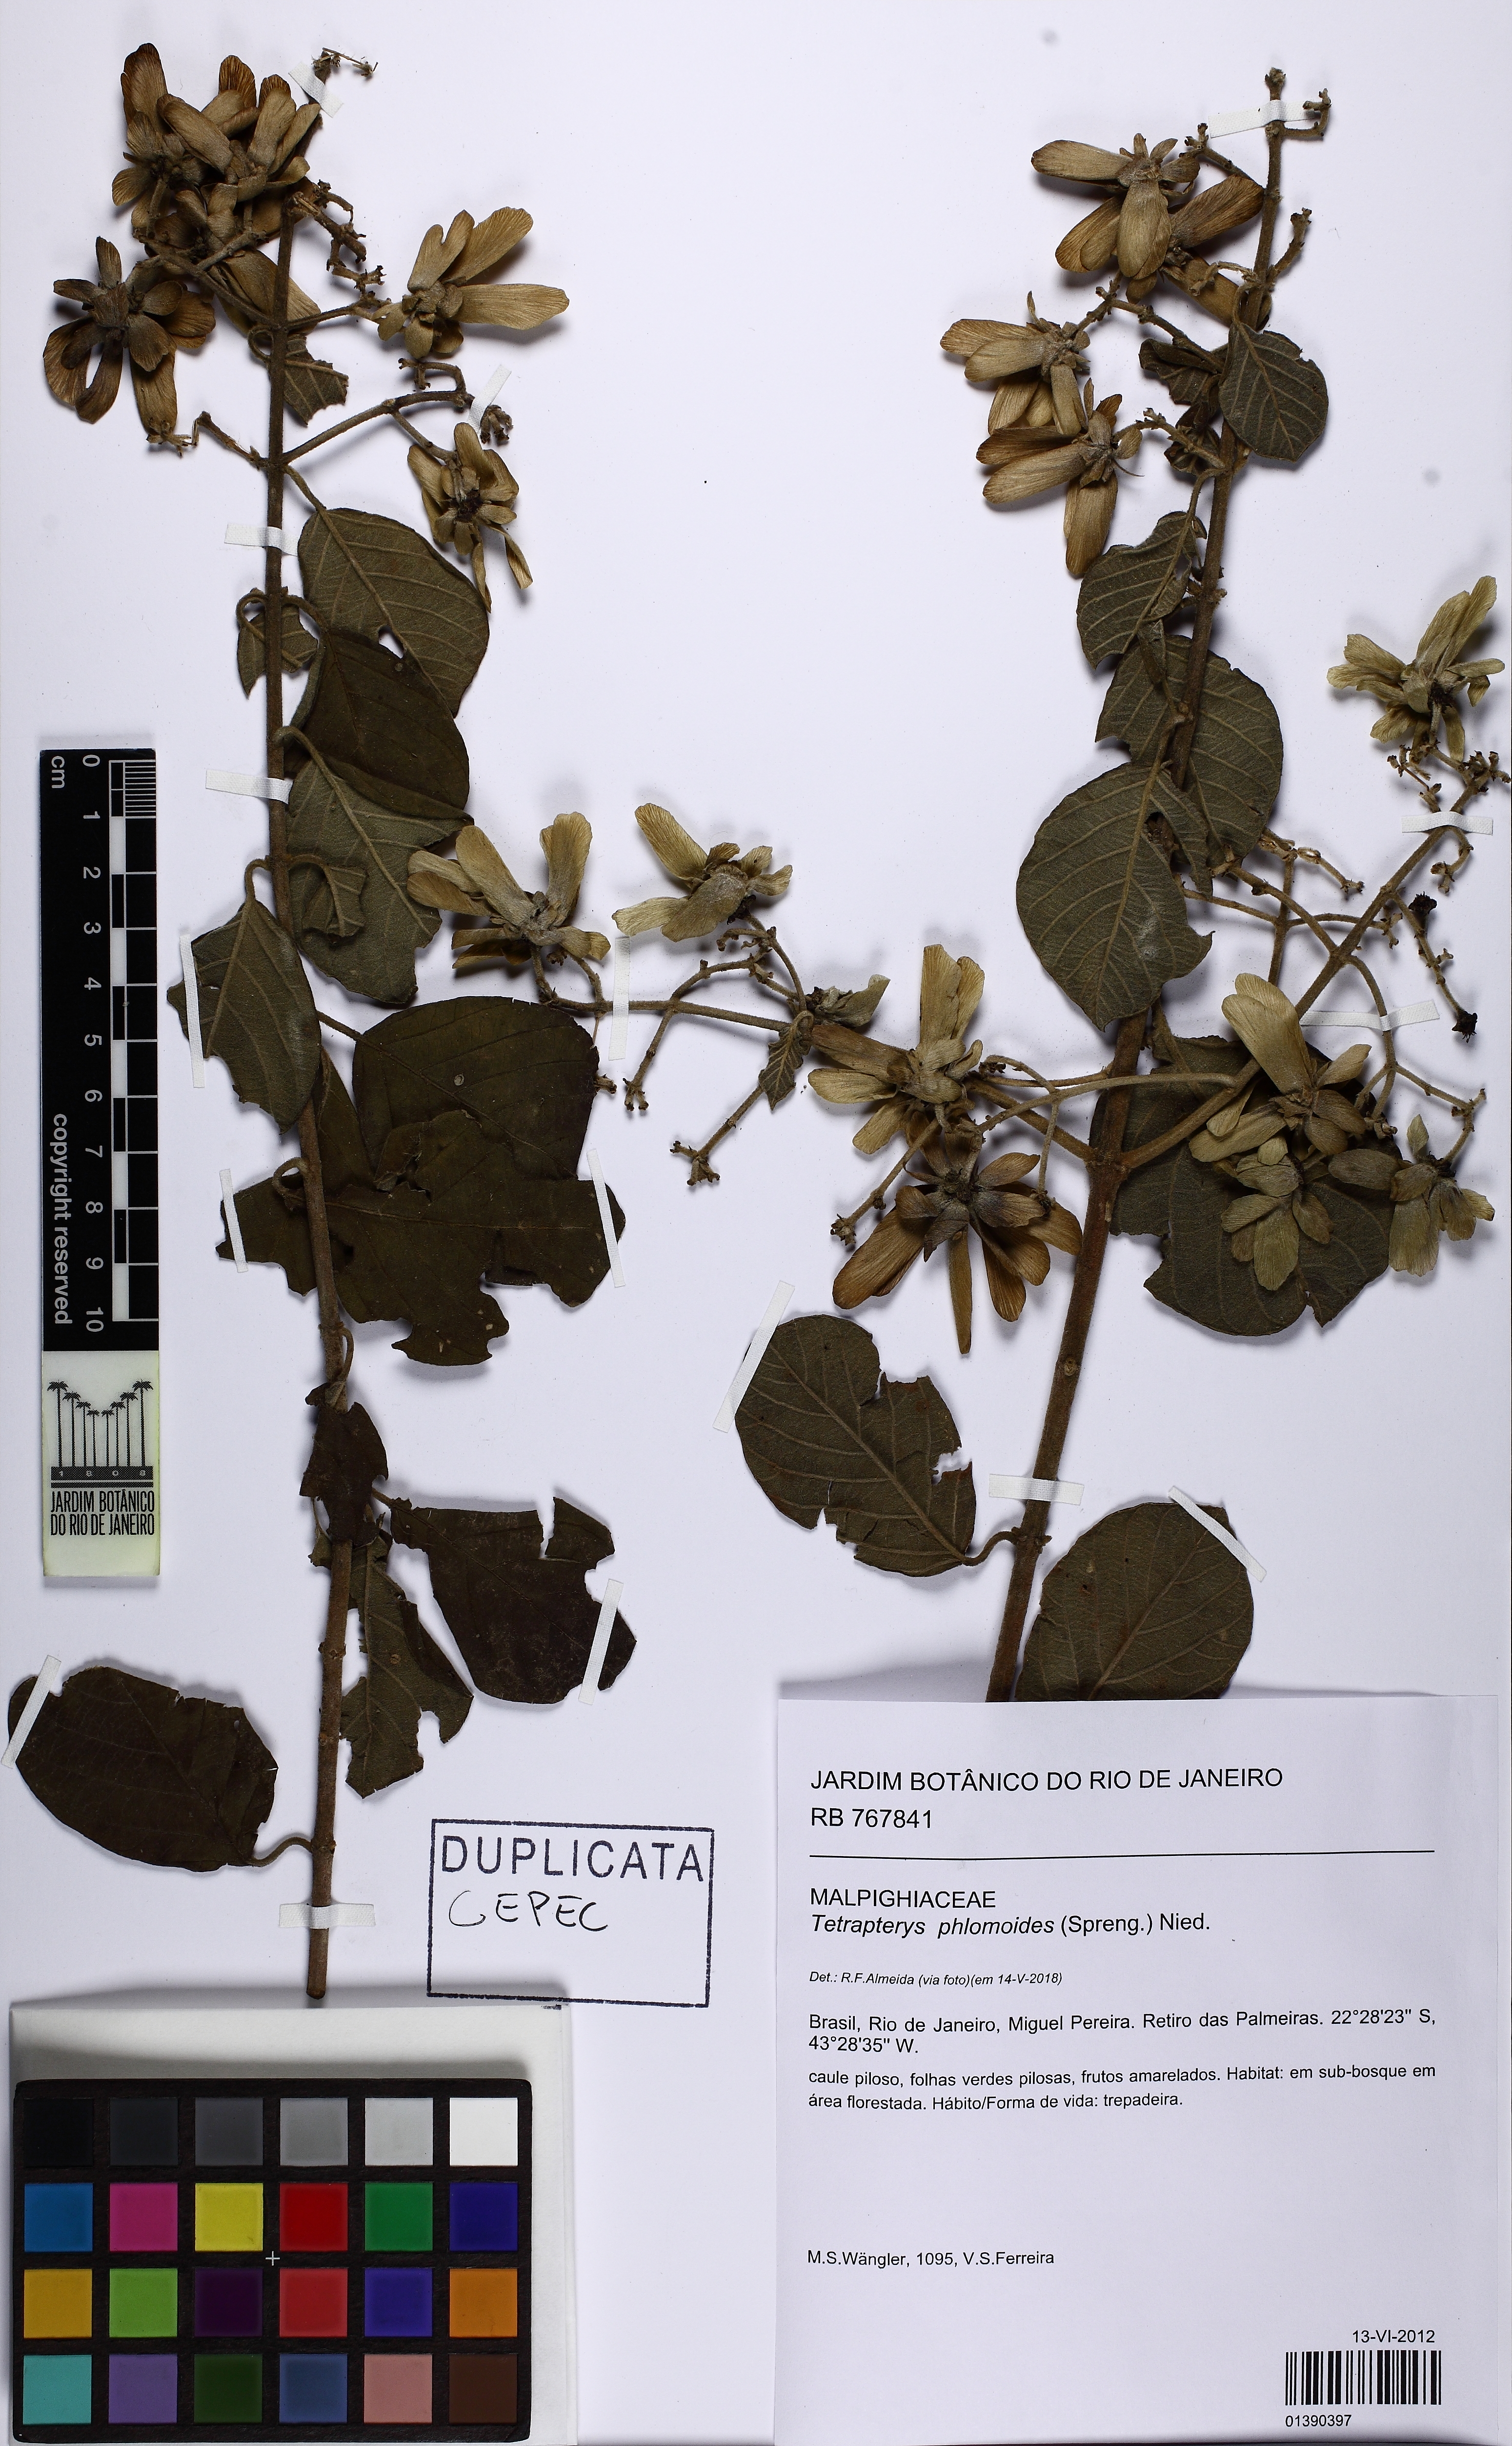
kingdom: Plantae
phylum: Tracheophyta
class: Magnoliopsida
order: Malpighiales
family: Malpighiaceae
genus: Tetrapterys
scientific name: Tetrapterys phlomoides
